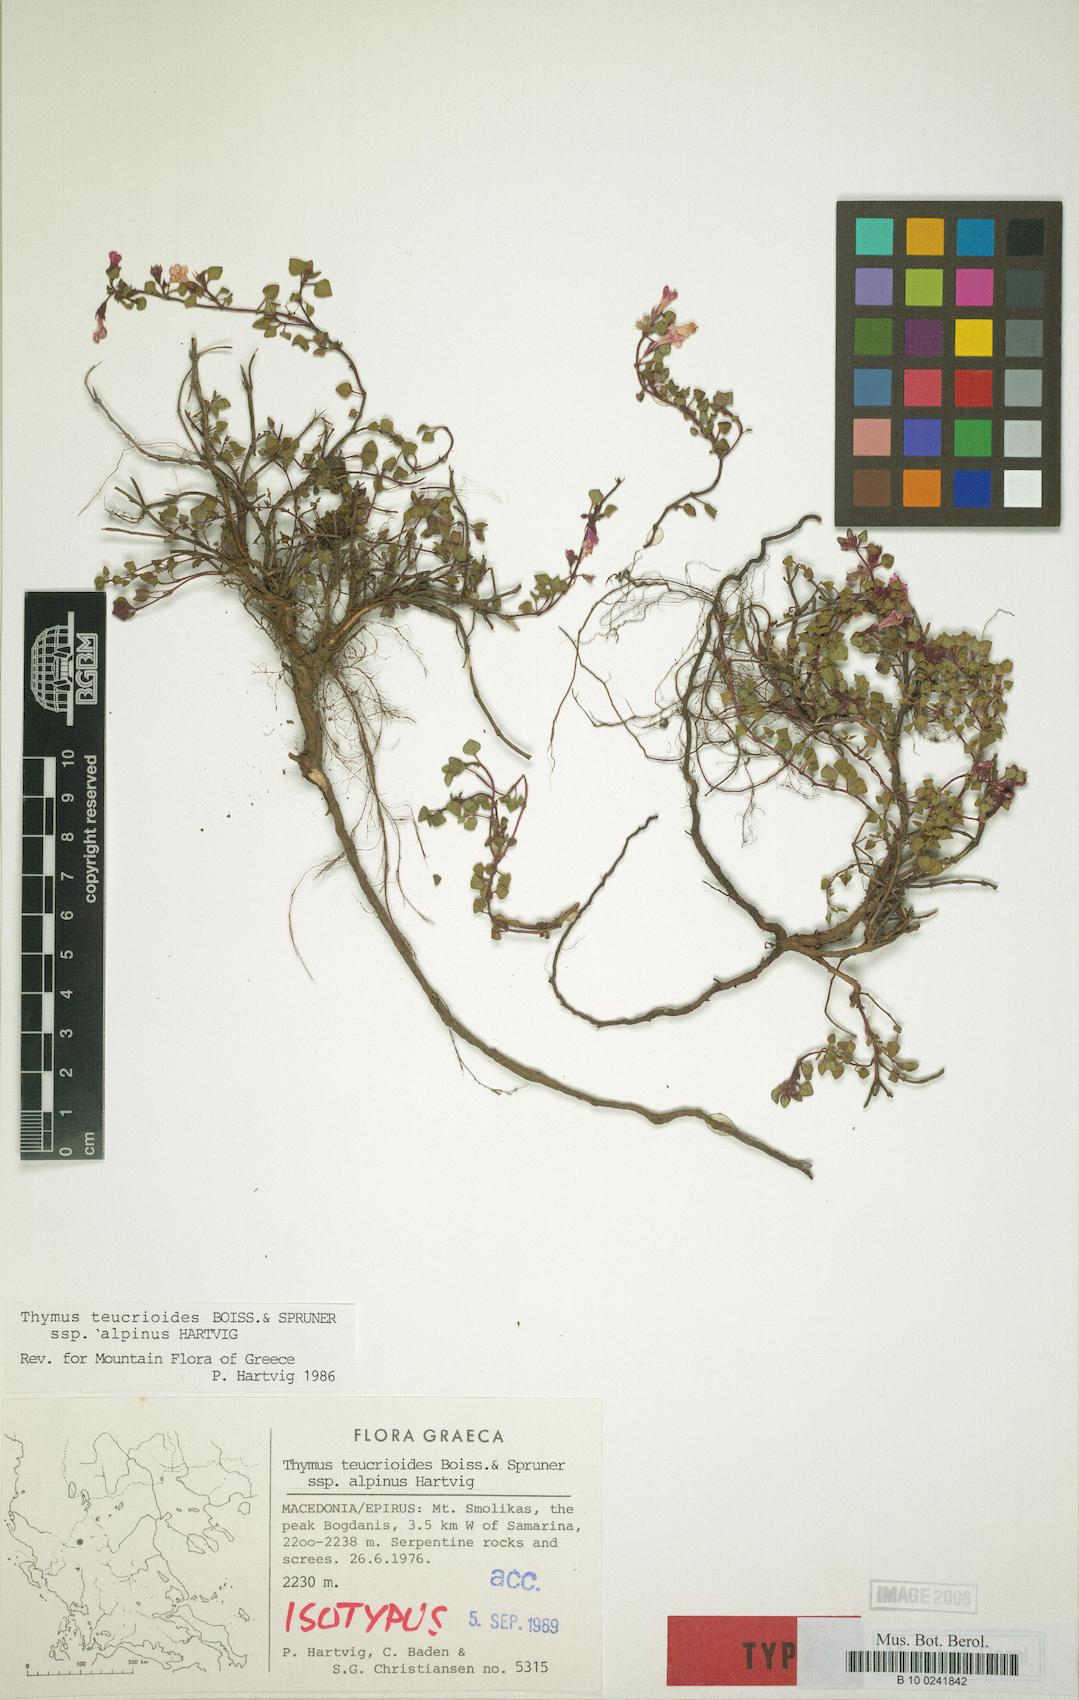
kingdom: Plantae
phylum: Tracheophyta
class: Magnoliopsida
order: Lamiales
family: Lamiaceae
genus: Thymus
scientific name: Thymus teucrioides
